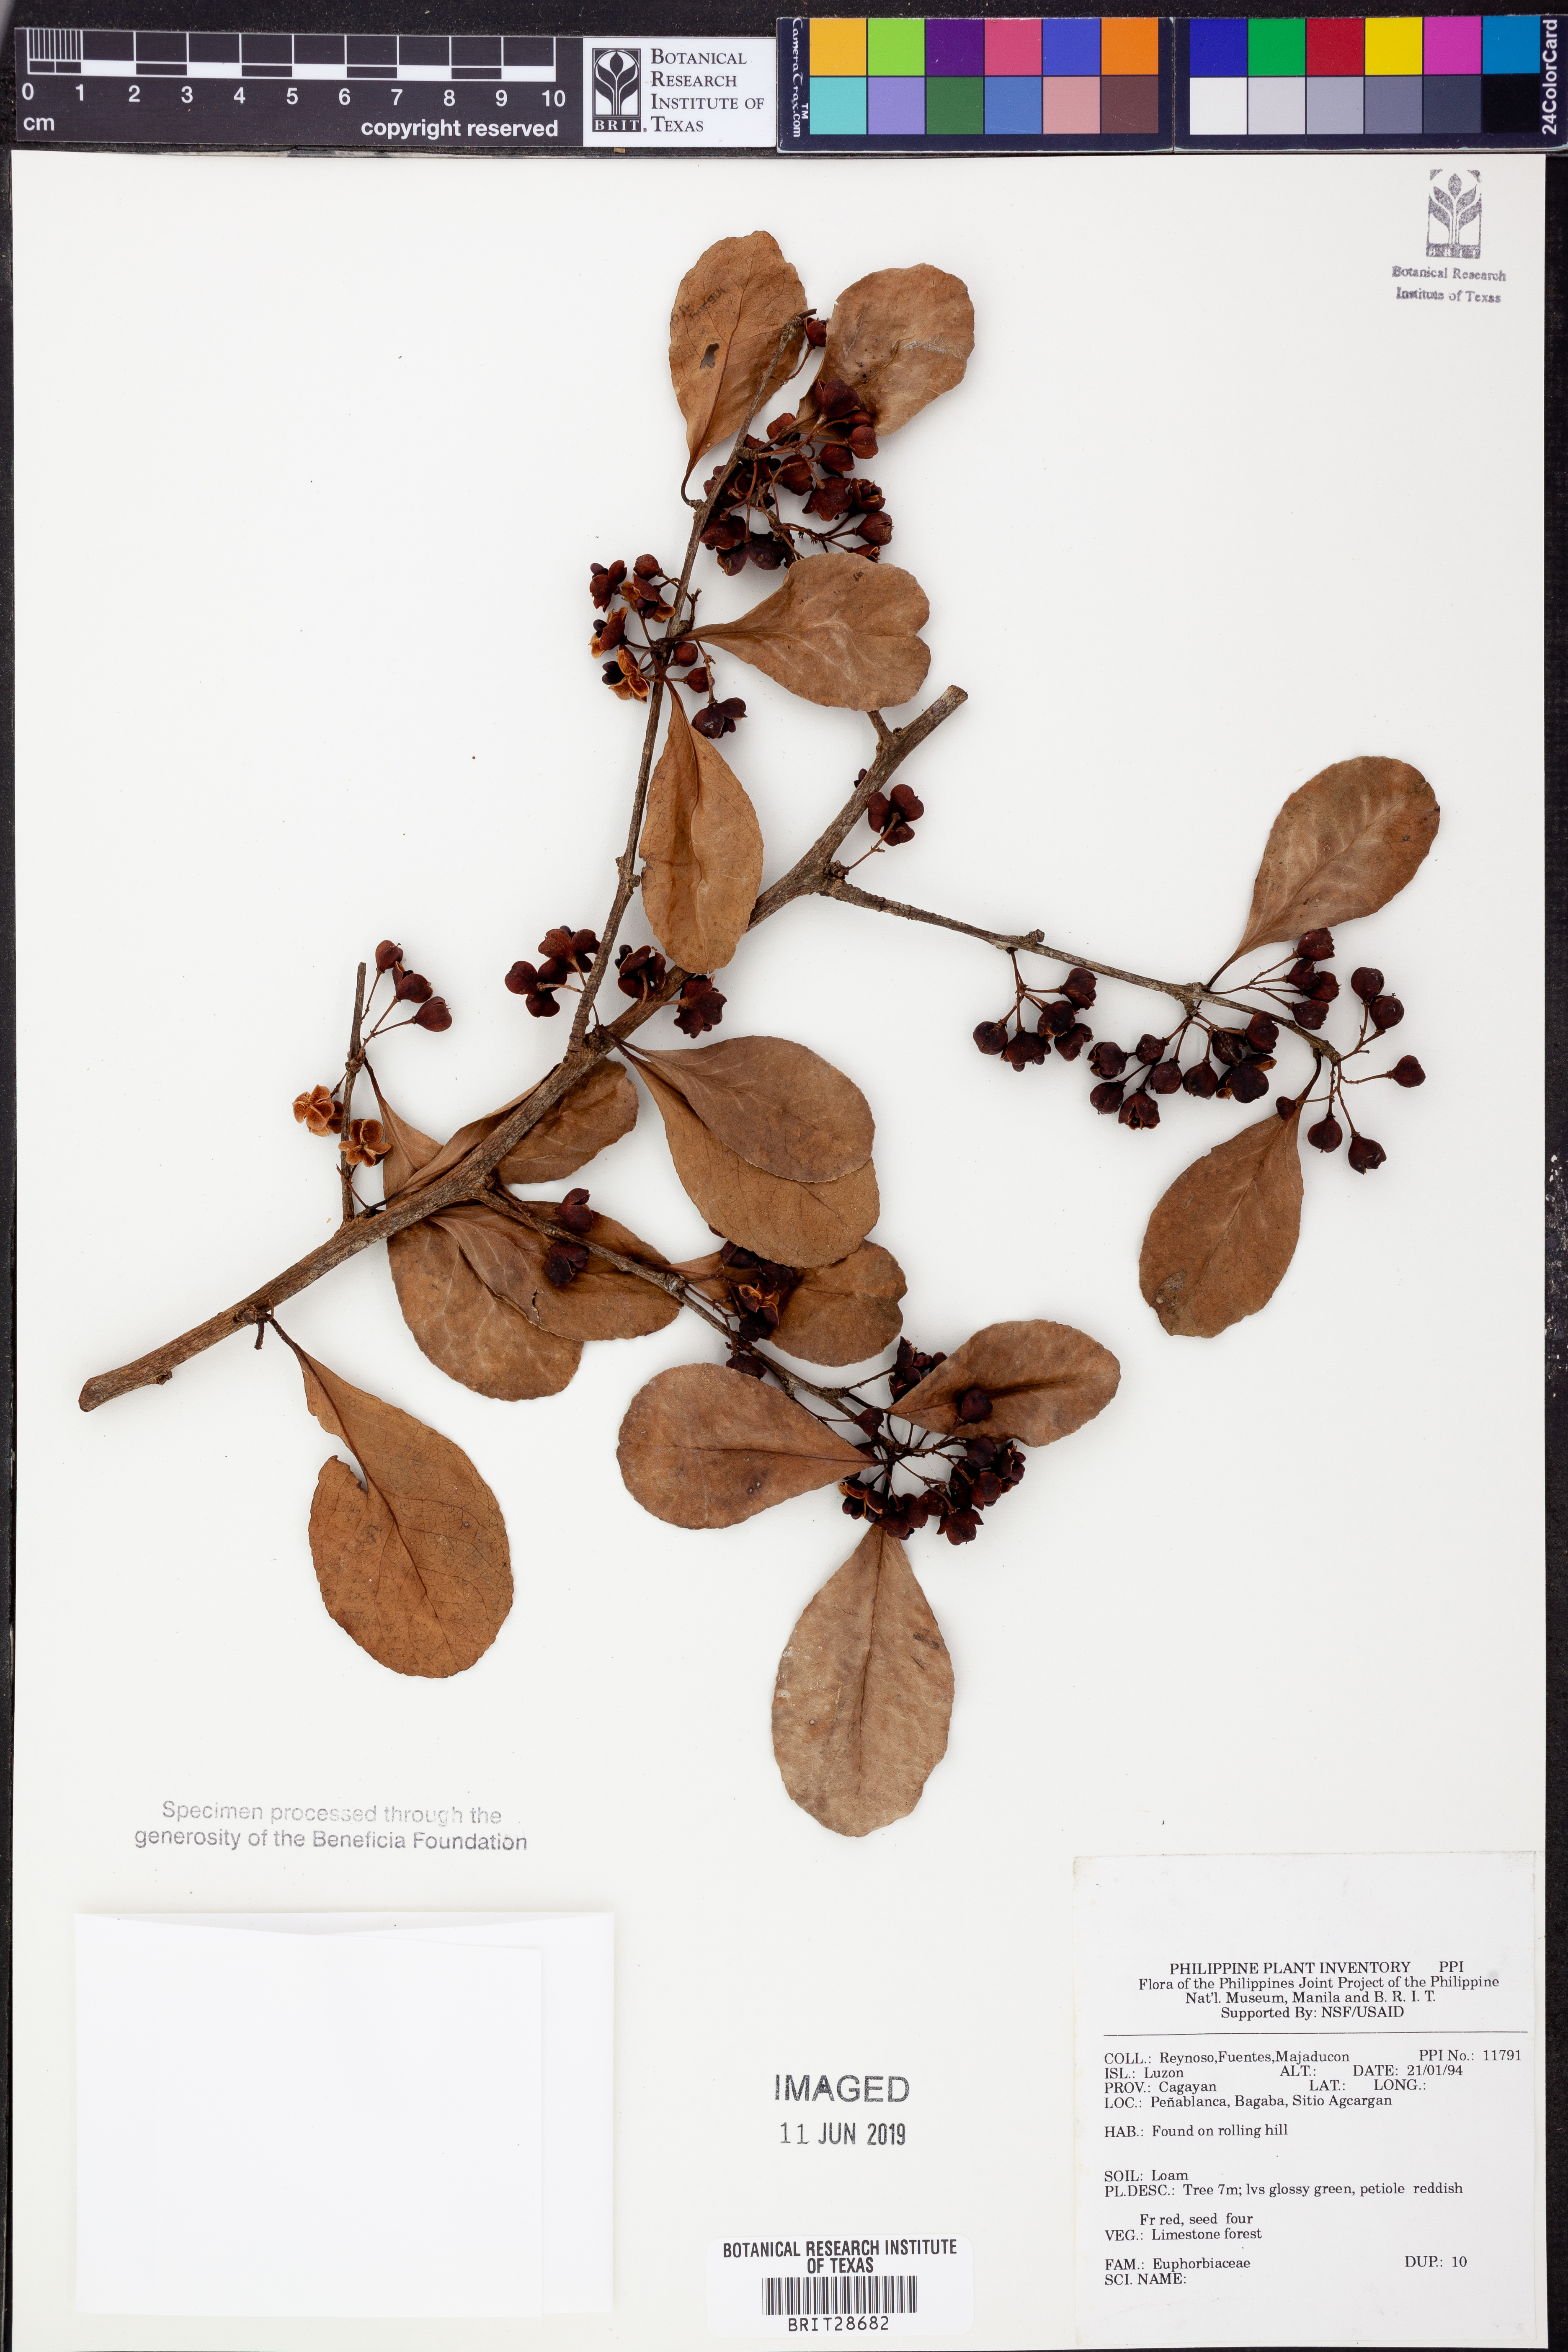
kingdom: Plantae
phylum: Tracheophyta
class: Magnoliopsida
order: Malpighiales
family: Euphorbiaceae
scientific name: Euphorbiaceae
